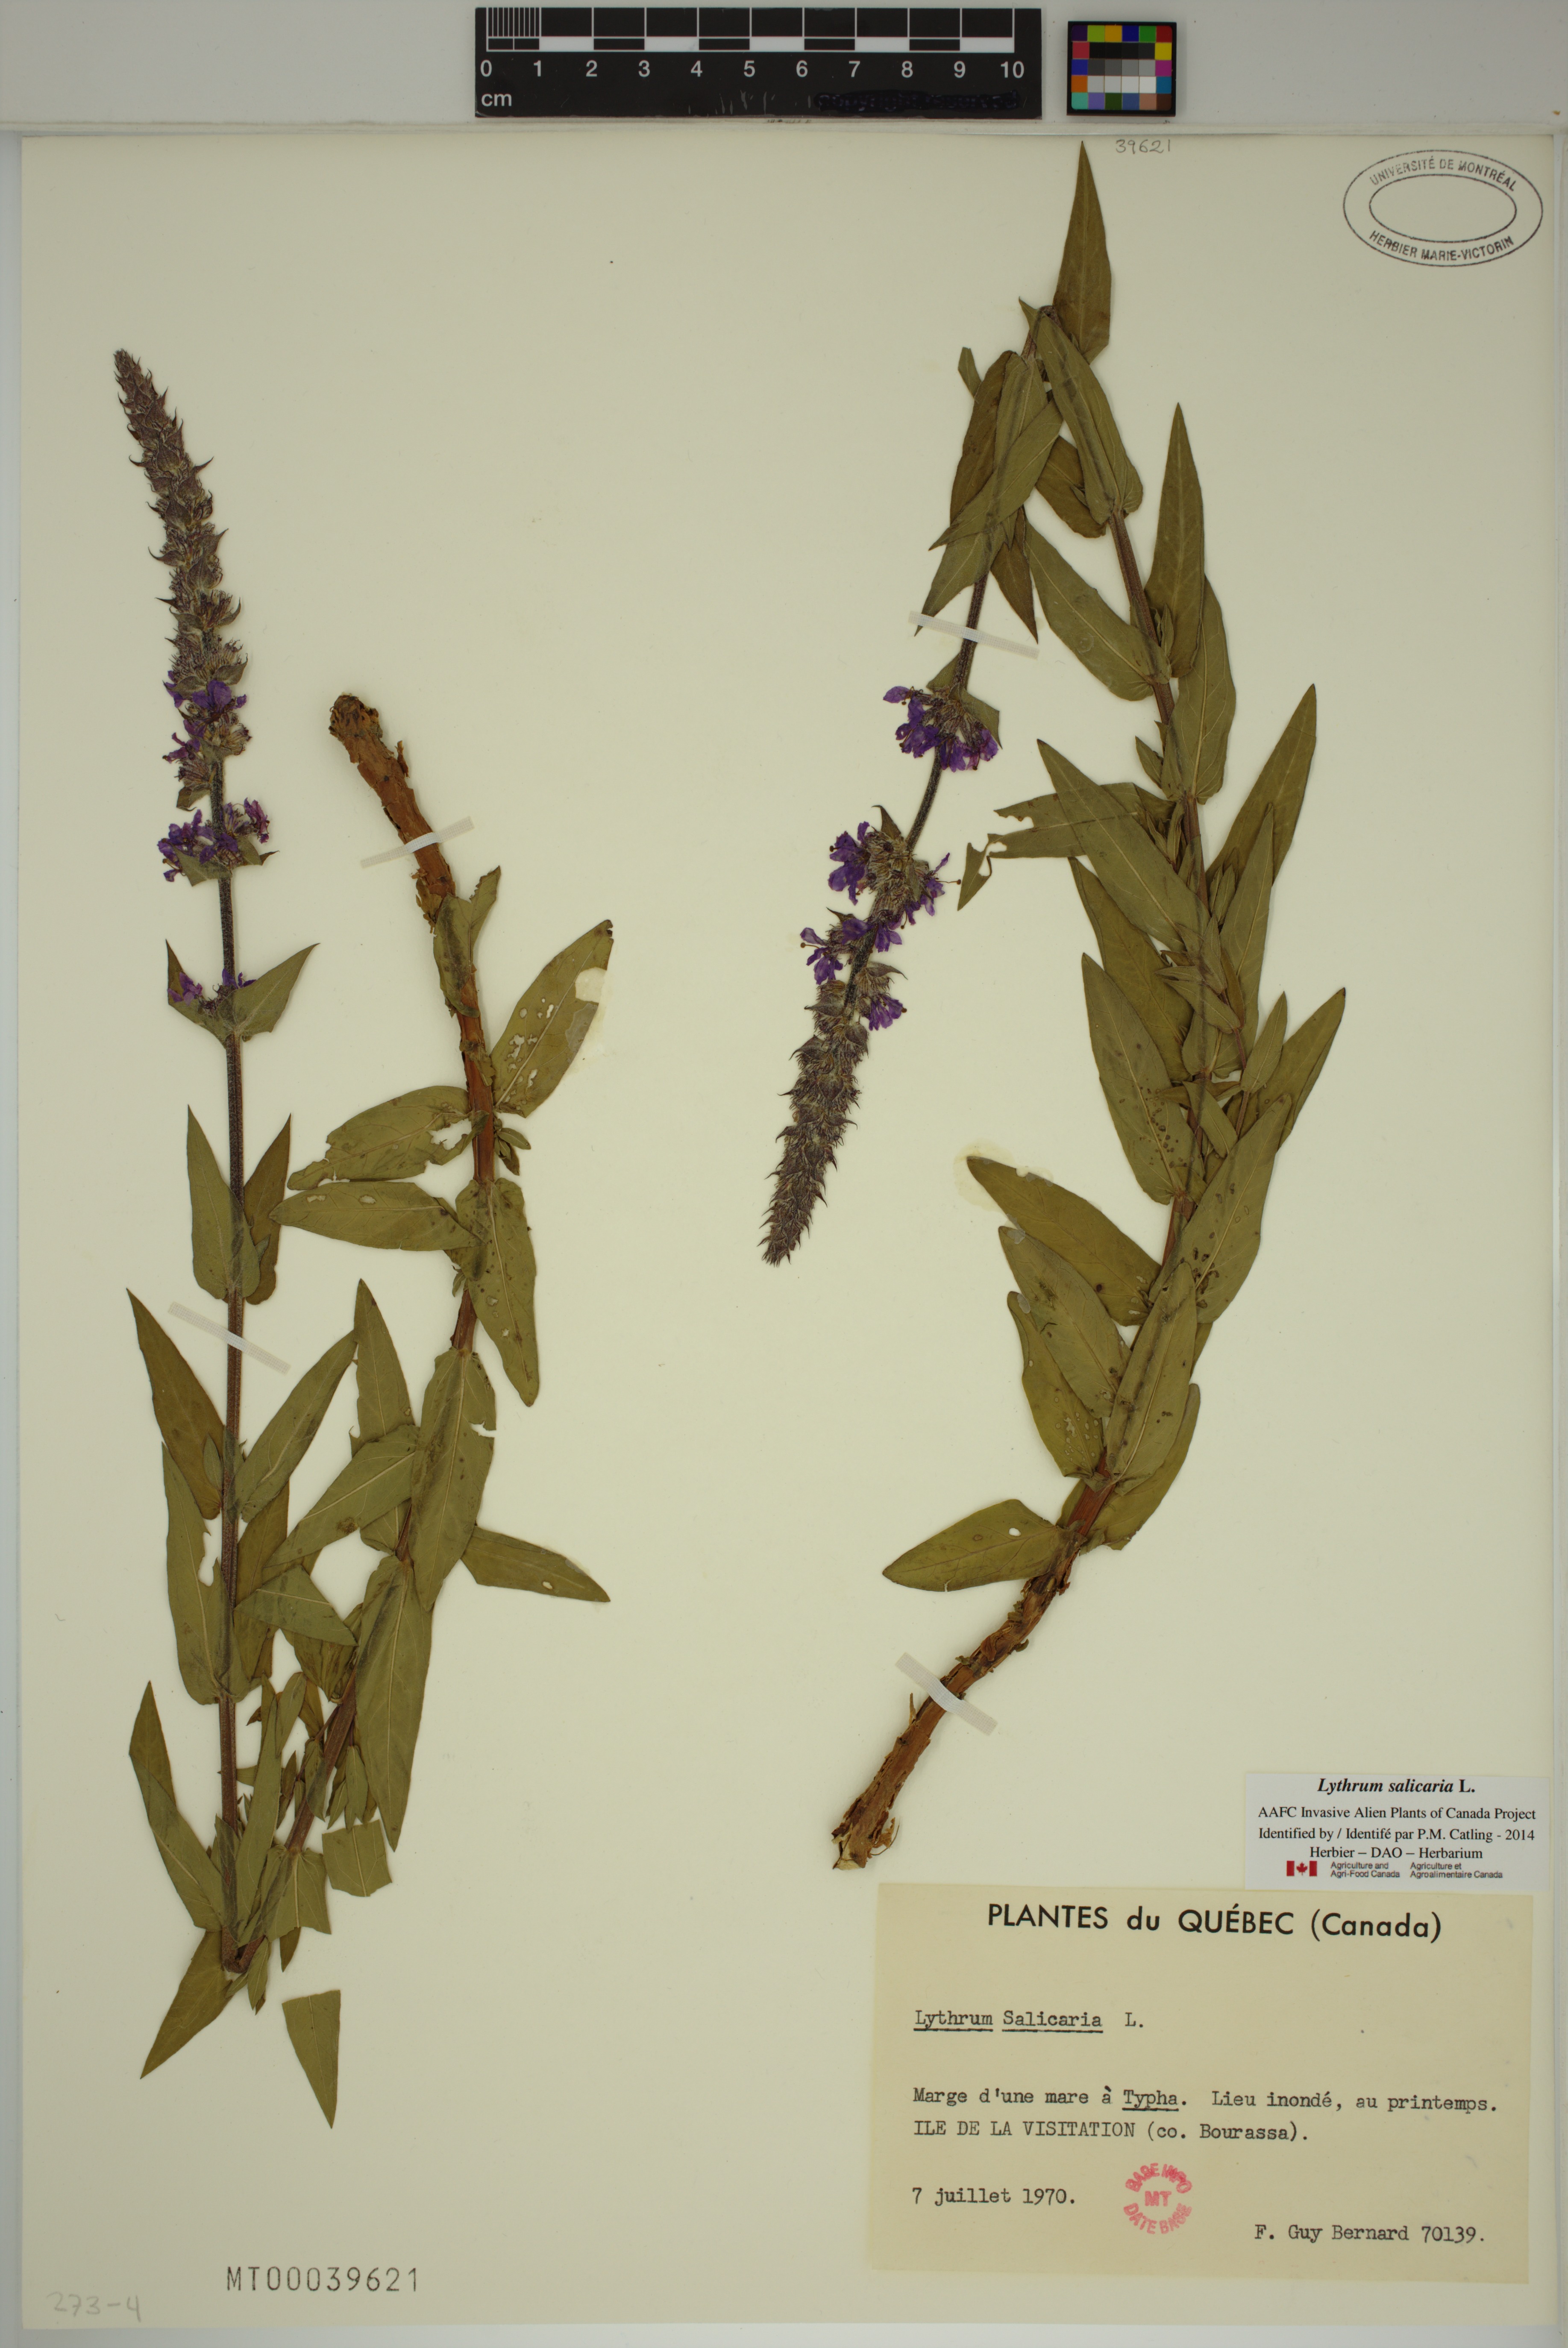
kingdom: Plantae
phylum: Tracheophyta
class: Magnoliopsida
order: Myrtales
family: Lythraceae
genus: Lythrum
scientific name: Lythrum salicaria
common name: Purple loosestrife
